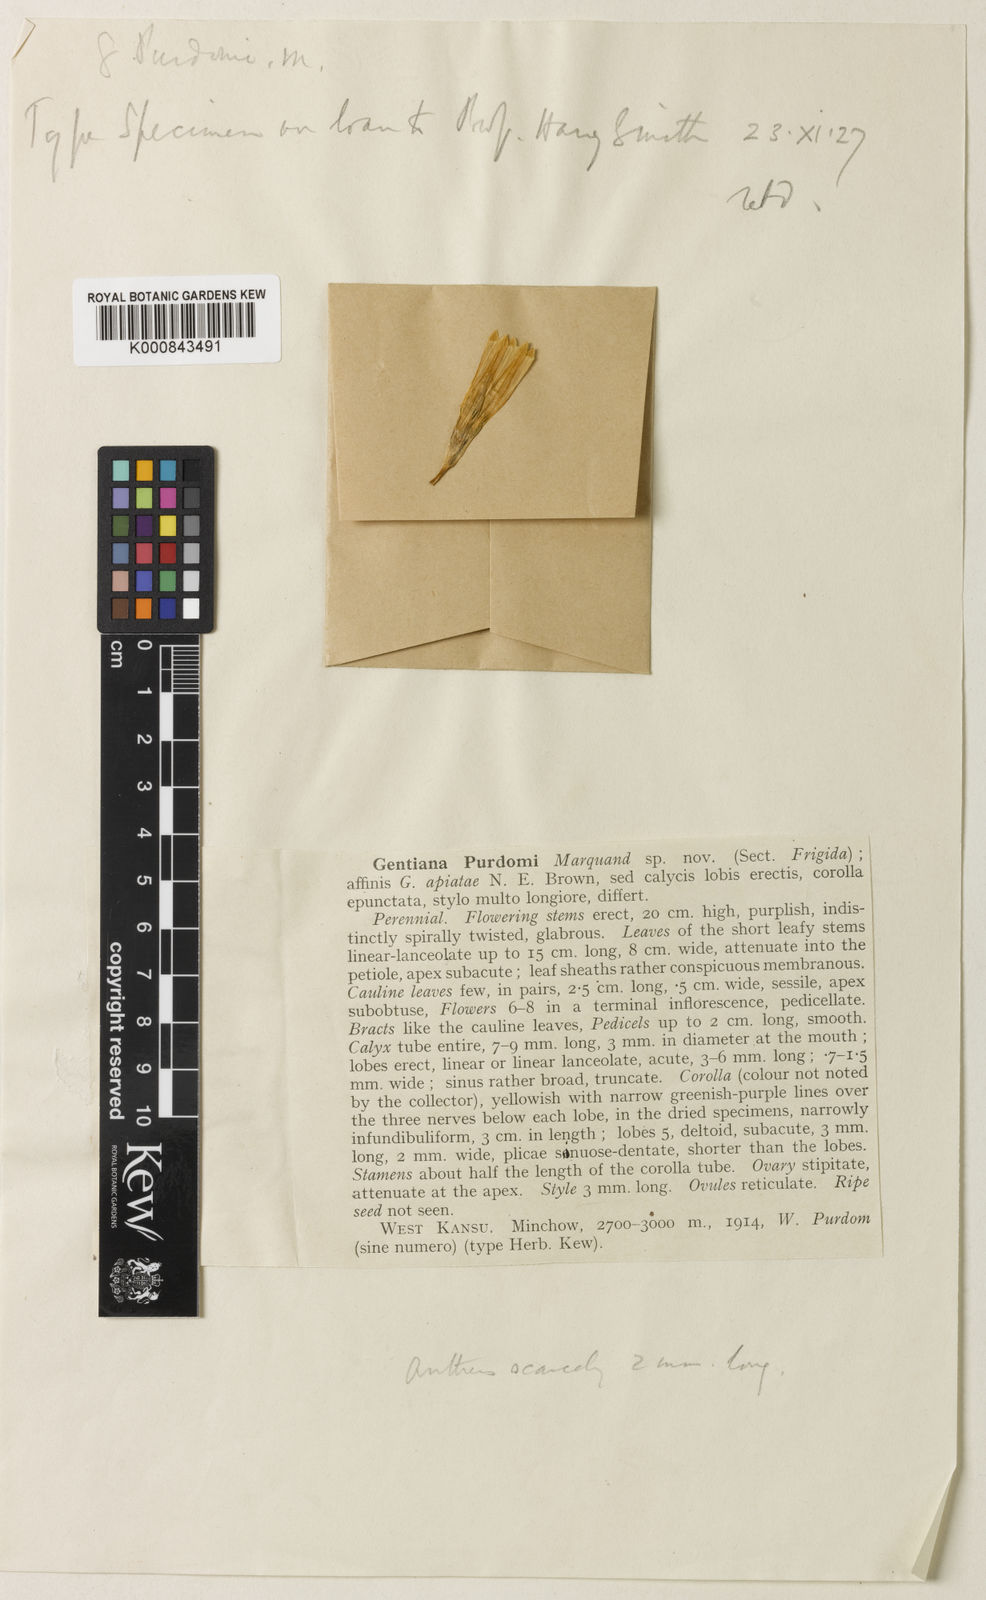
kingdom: Plantae
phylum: Tracheophyta
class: Magnoliopsida
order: Gentianales
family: Gentianaceae
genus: Gentiana
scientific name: Gentiana algida
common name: Arctic gentian
